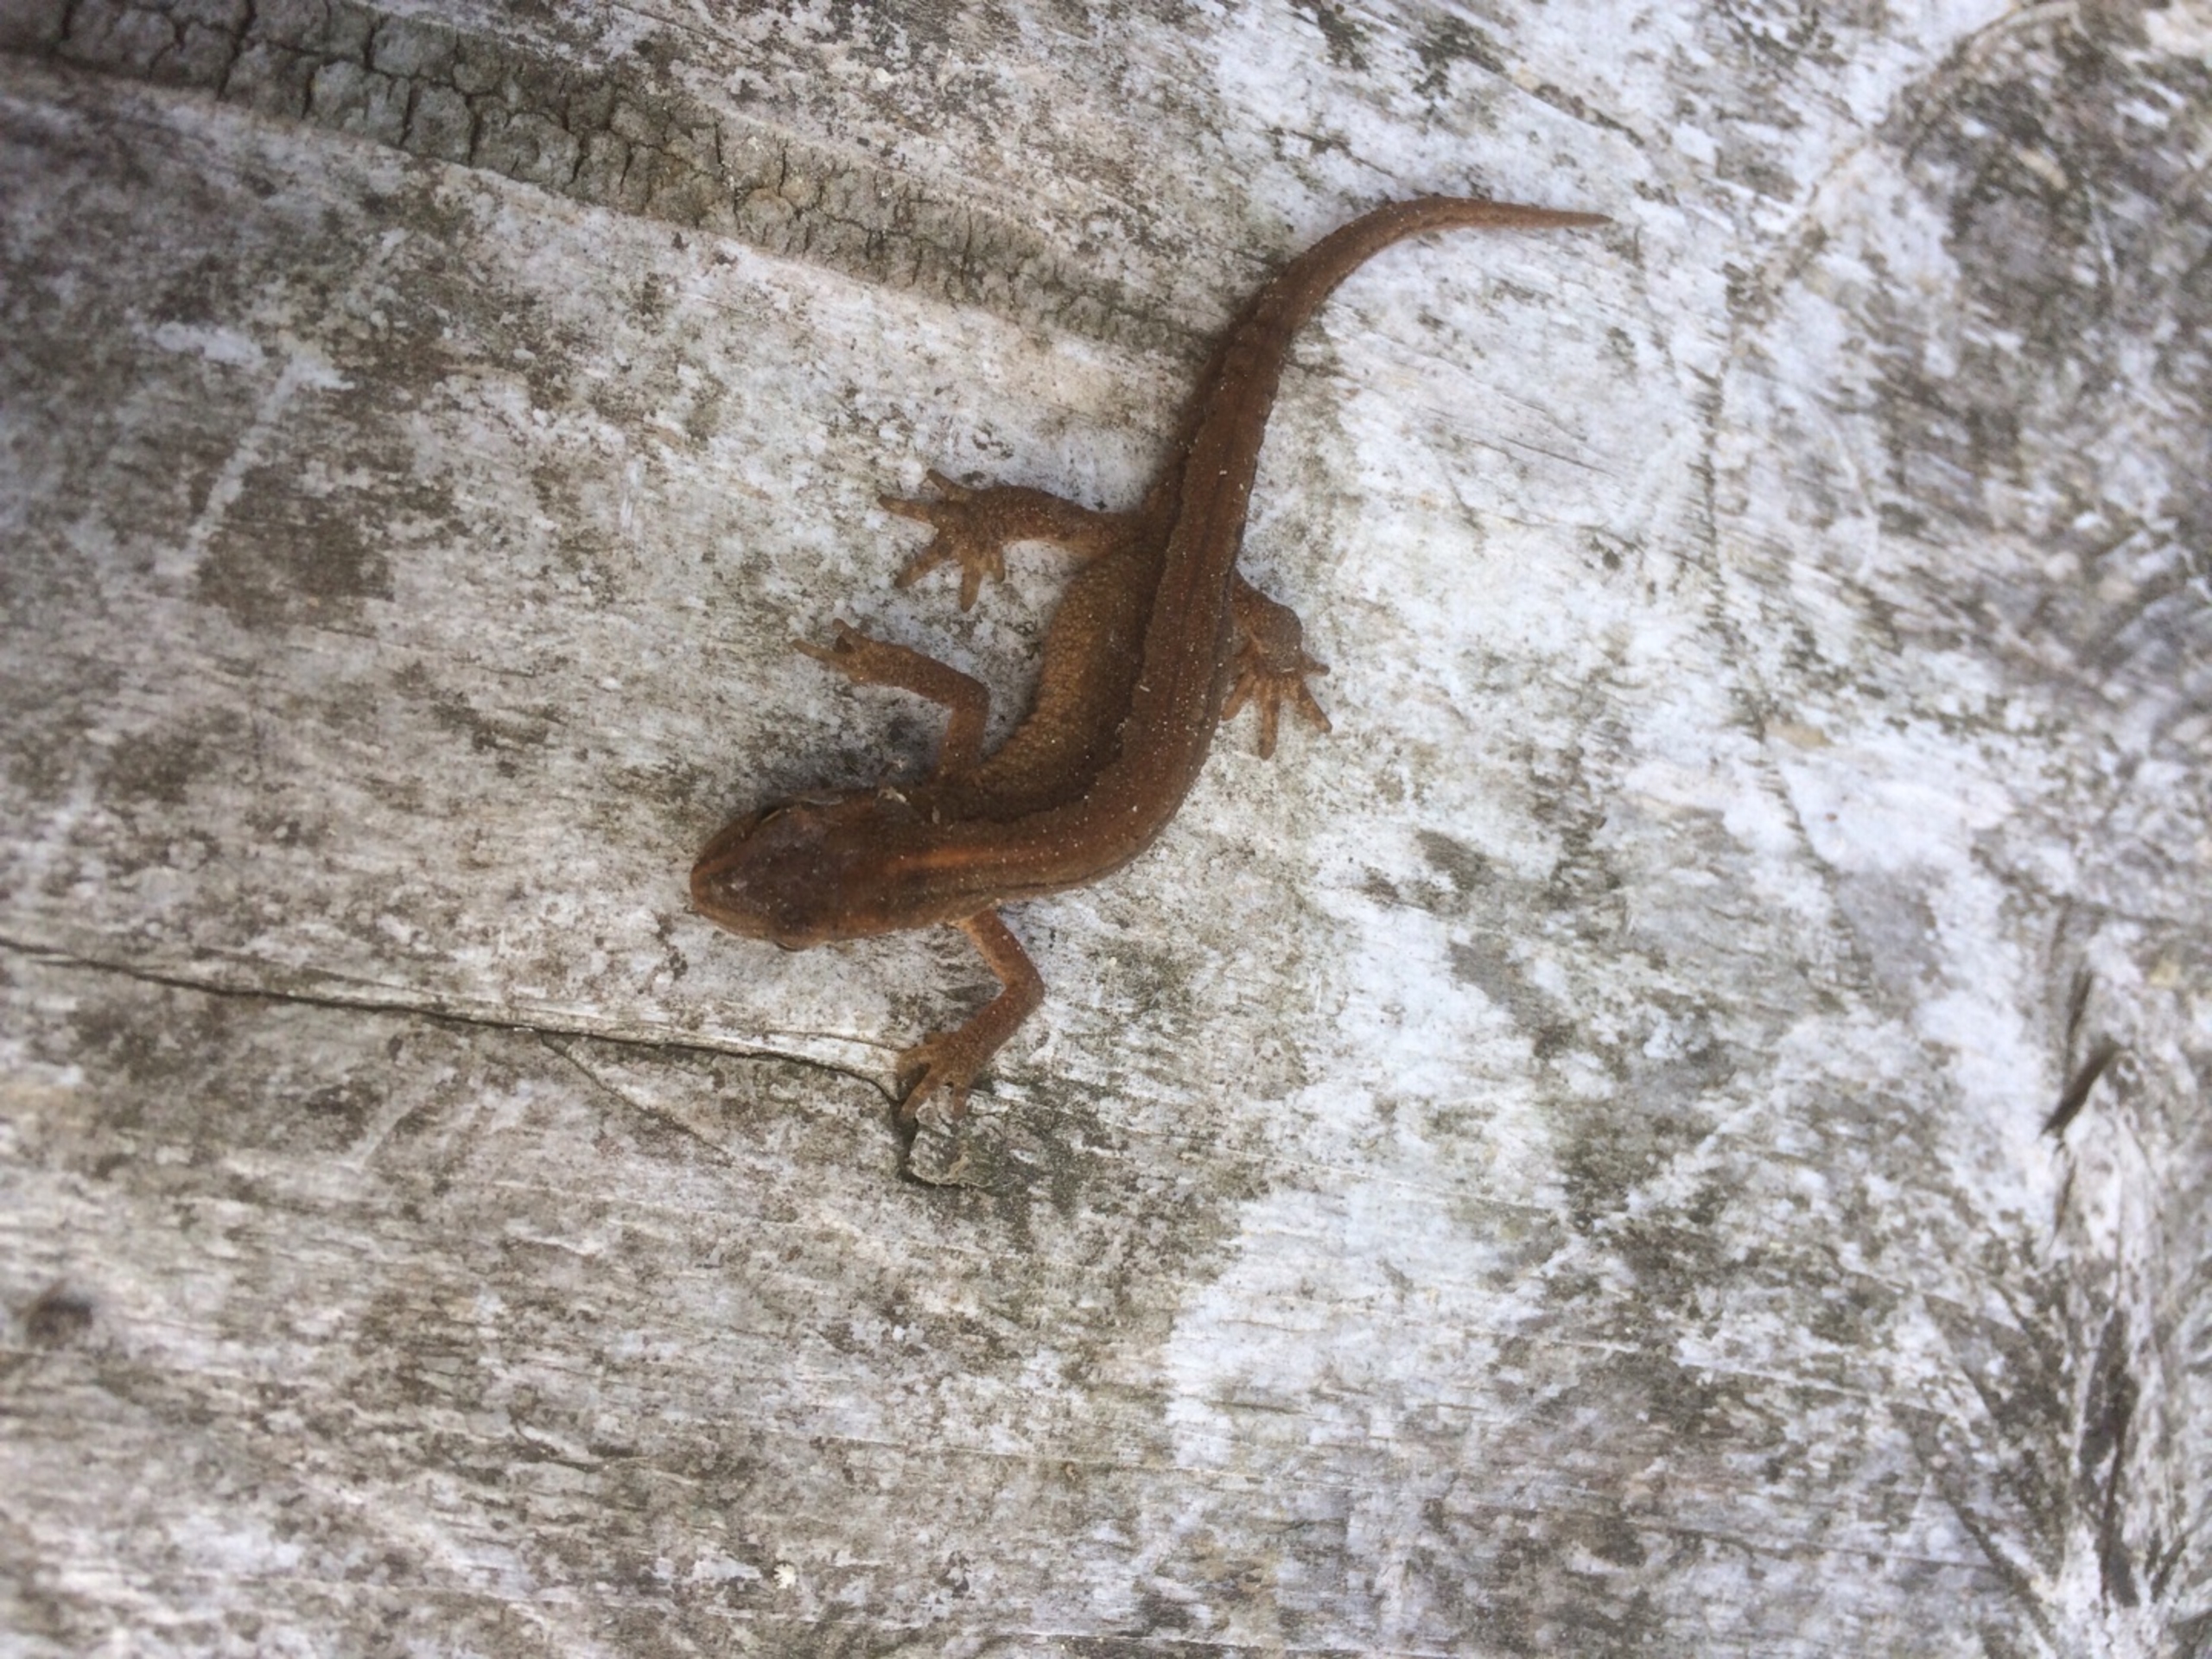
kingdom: Animalia
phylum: Chordata
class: Amphibia
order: Caudata
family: Salamandridae
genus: Lissotriton
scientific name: Lissotriton vulgaris
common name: Lille vandsalamander
